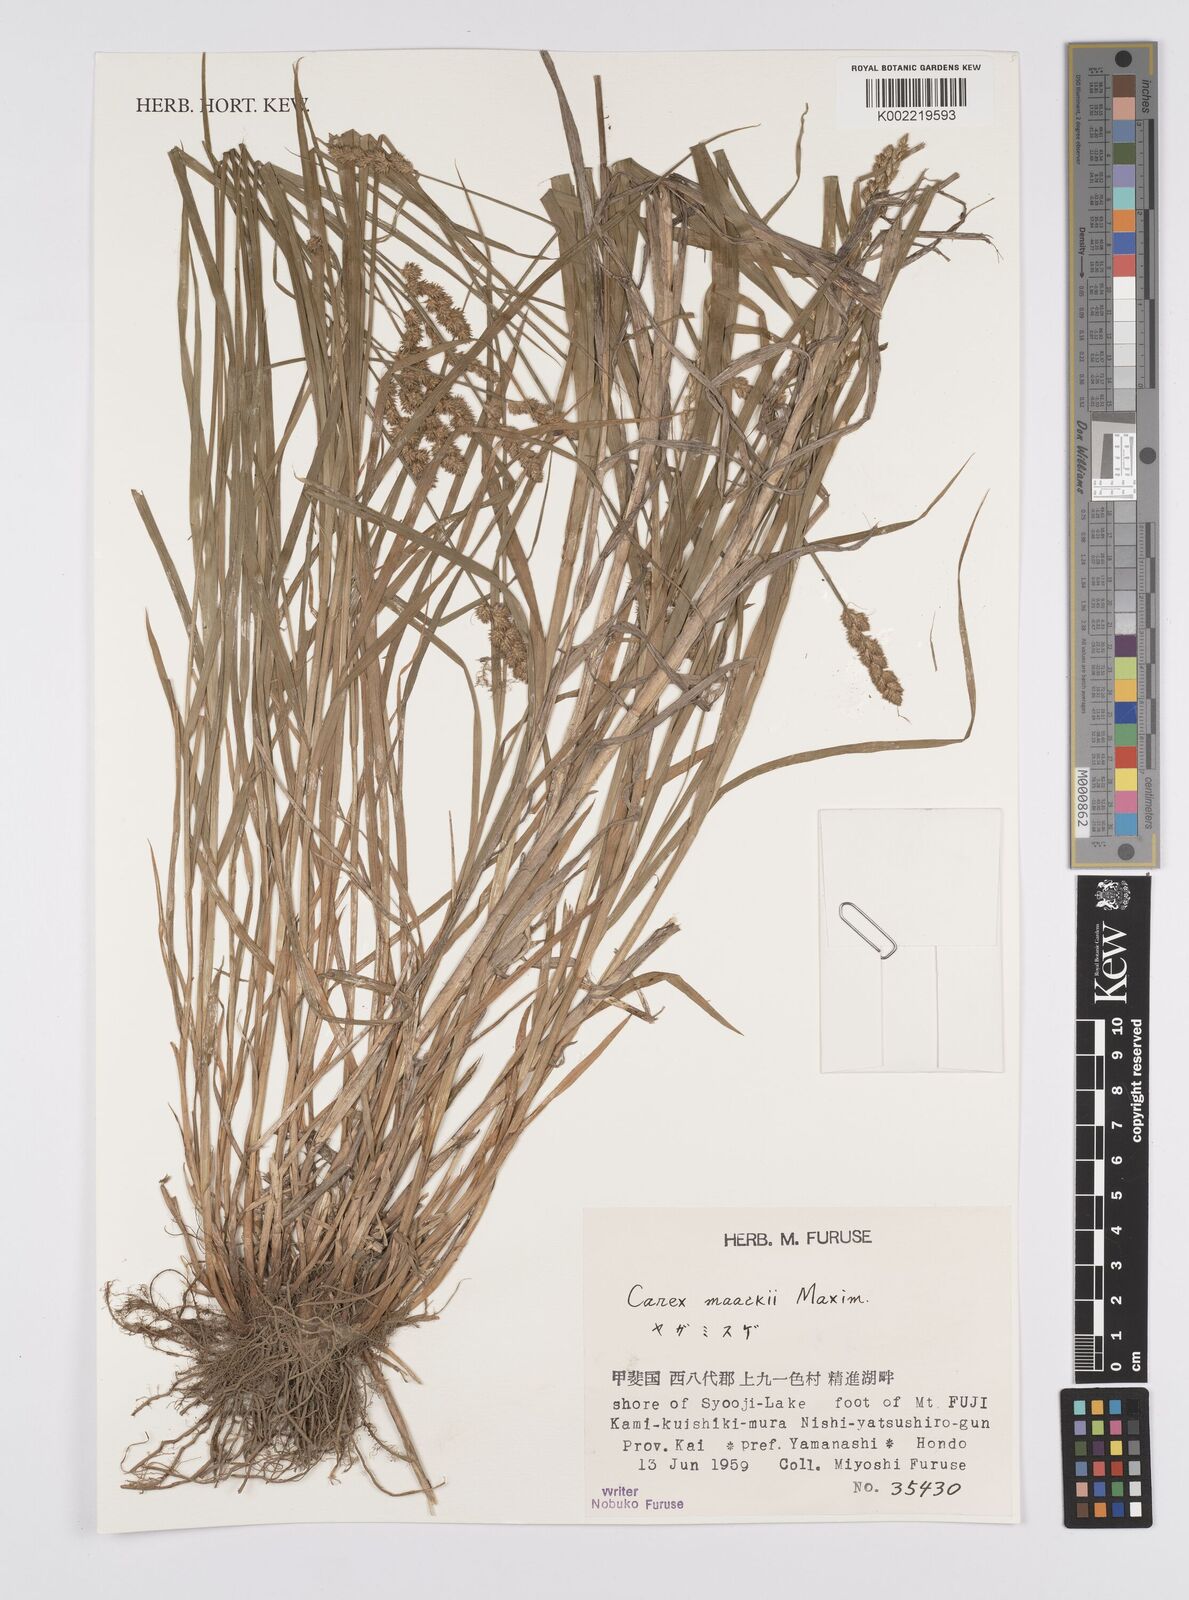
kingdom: Plantae
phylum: Tracheophyta
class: Liliopsida
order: Poales
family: Cyperaceae
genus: Carex
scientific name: Carex maackii
